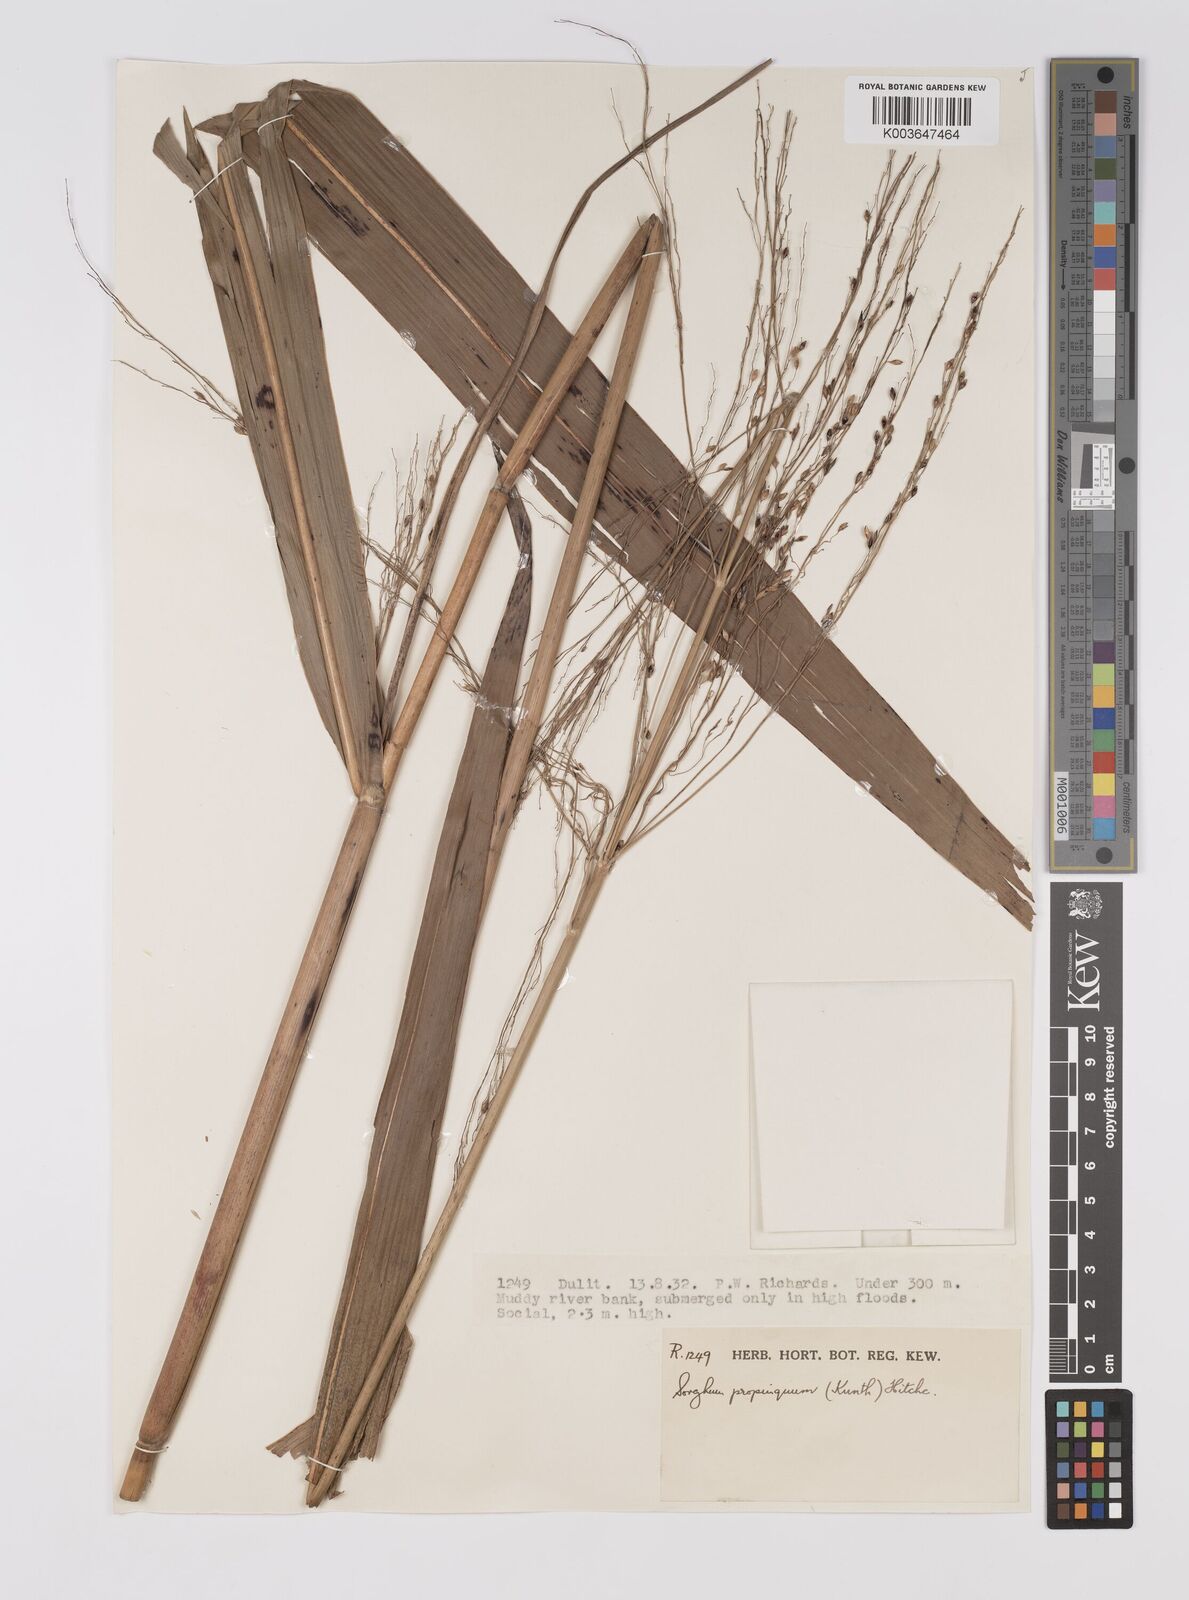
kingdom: Plantae
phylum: Tracheophyta
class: Liliopsida
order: Poales
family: Poaceae
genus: Sorghum
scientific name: Sorghum propinquum
